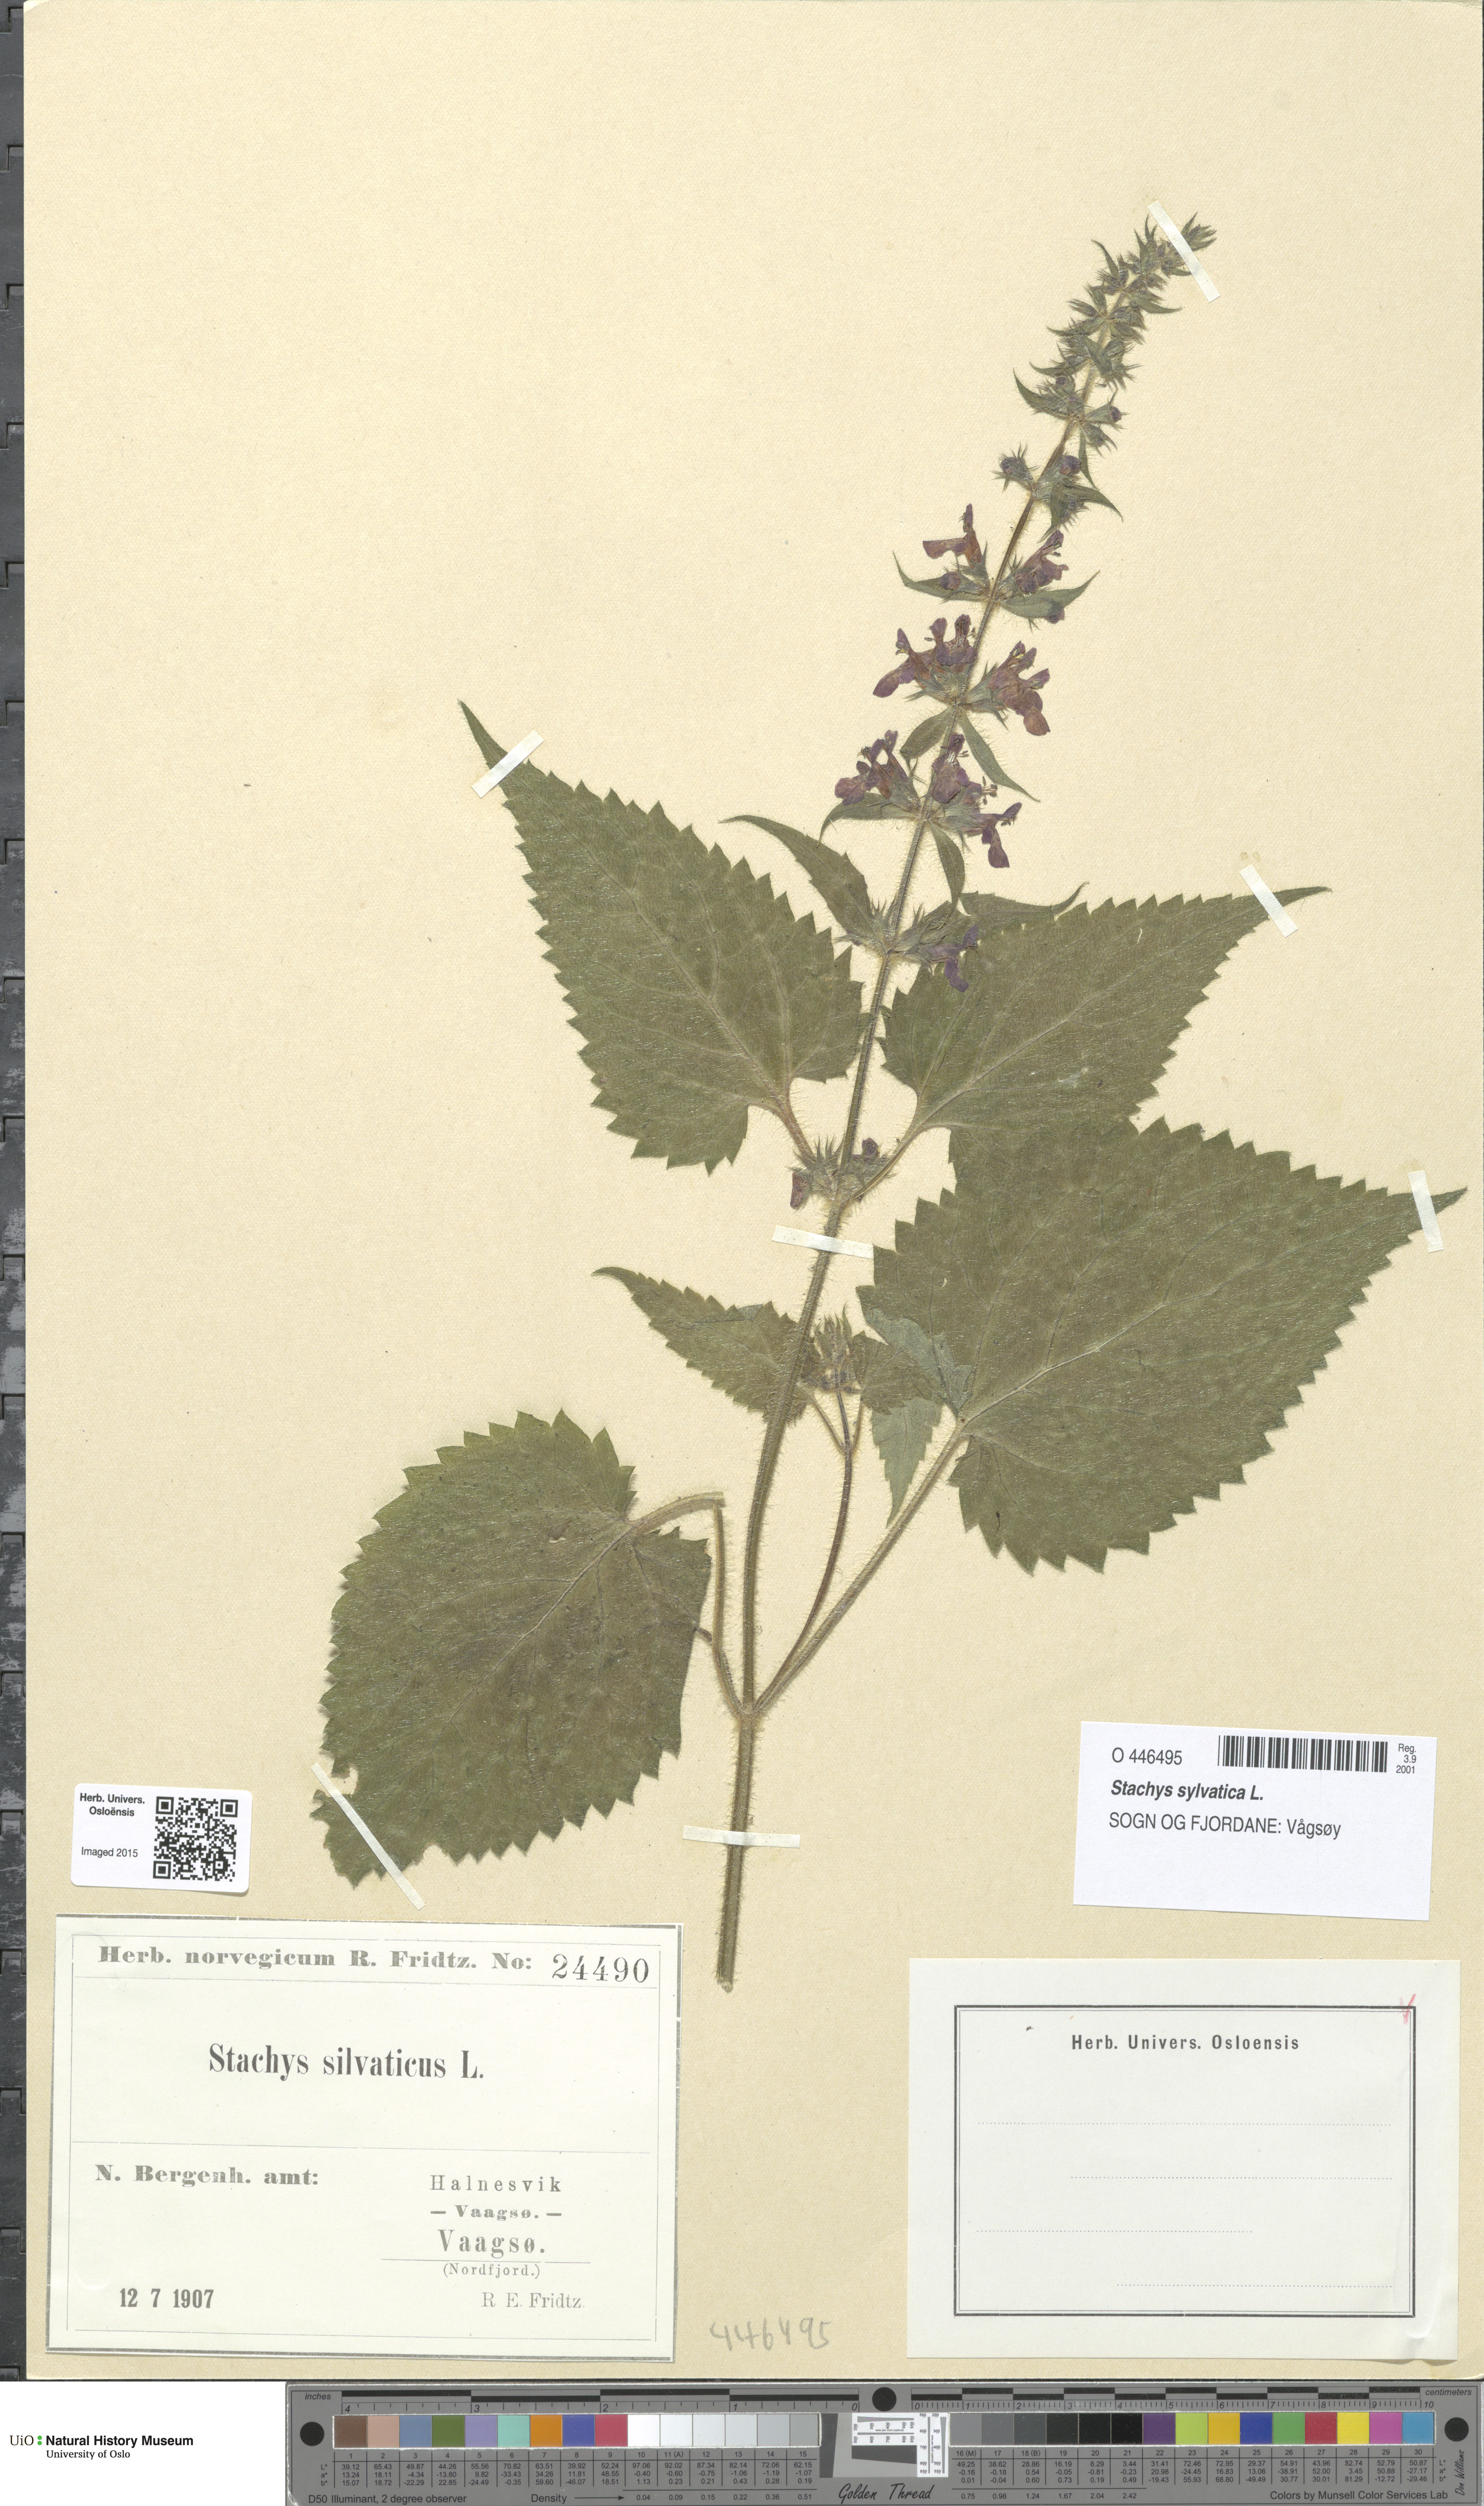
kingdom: Plantae
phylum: Tracheophyta
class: Magnoliopsida
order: Lamiales
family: Lamiaceae
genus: Stachys
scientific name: Stachys sylvatica
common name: Hedge woundwort
